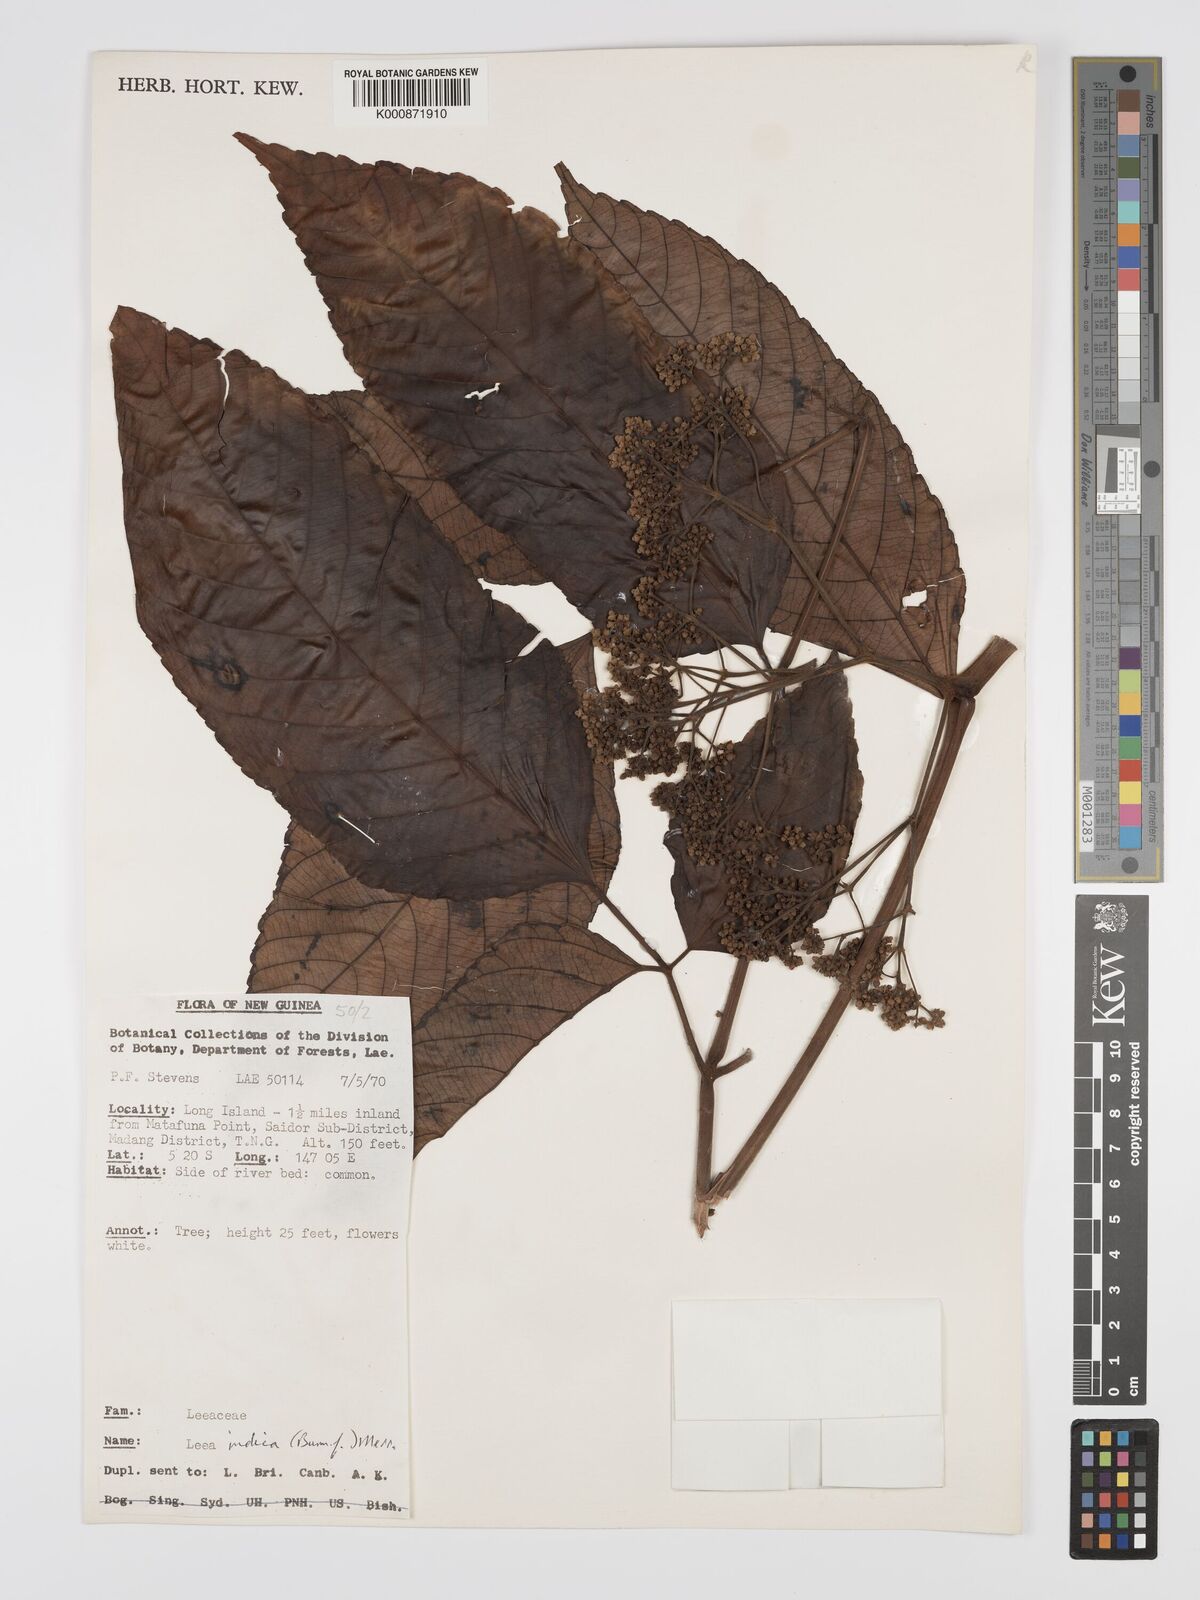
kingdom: Plantae
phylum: Tracheophyta
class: Magnoliopsida
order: Vitales
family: Vitaceae
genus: Leea
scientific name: Leea indica
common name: Bandicoot-berry
